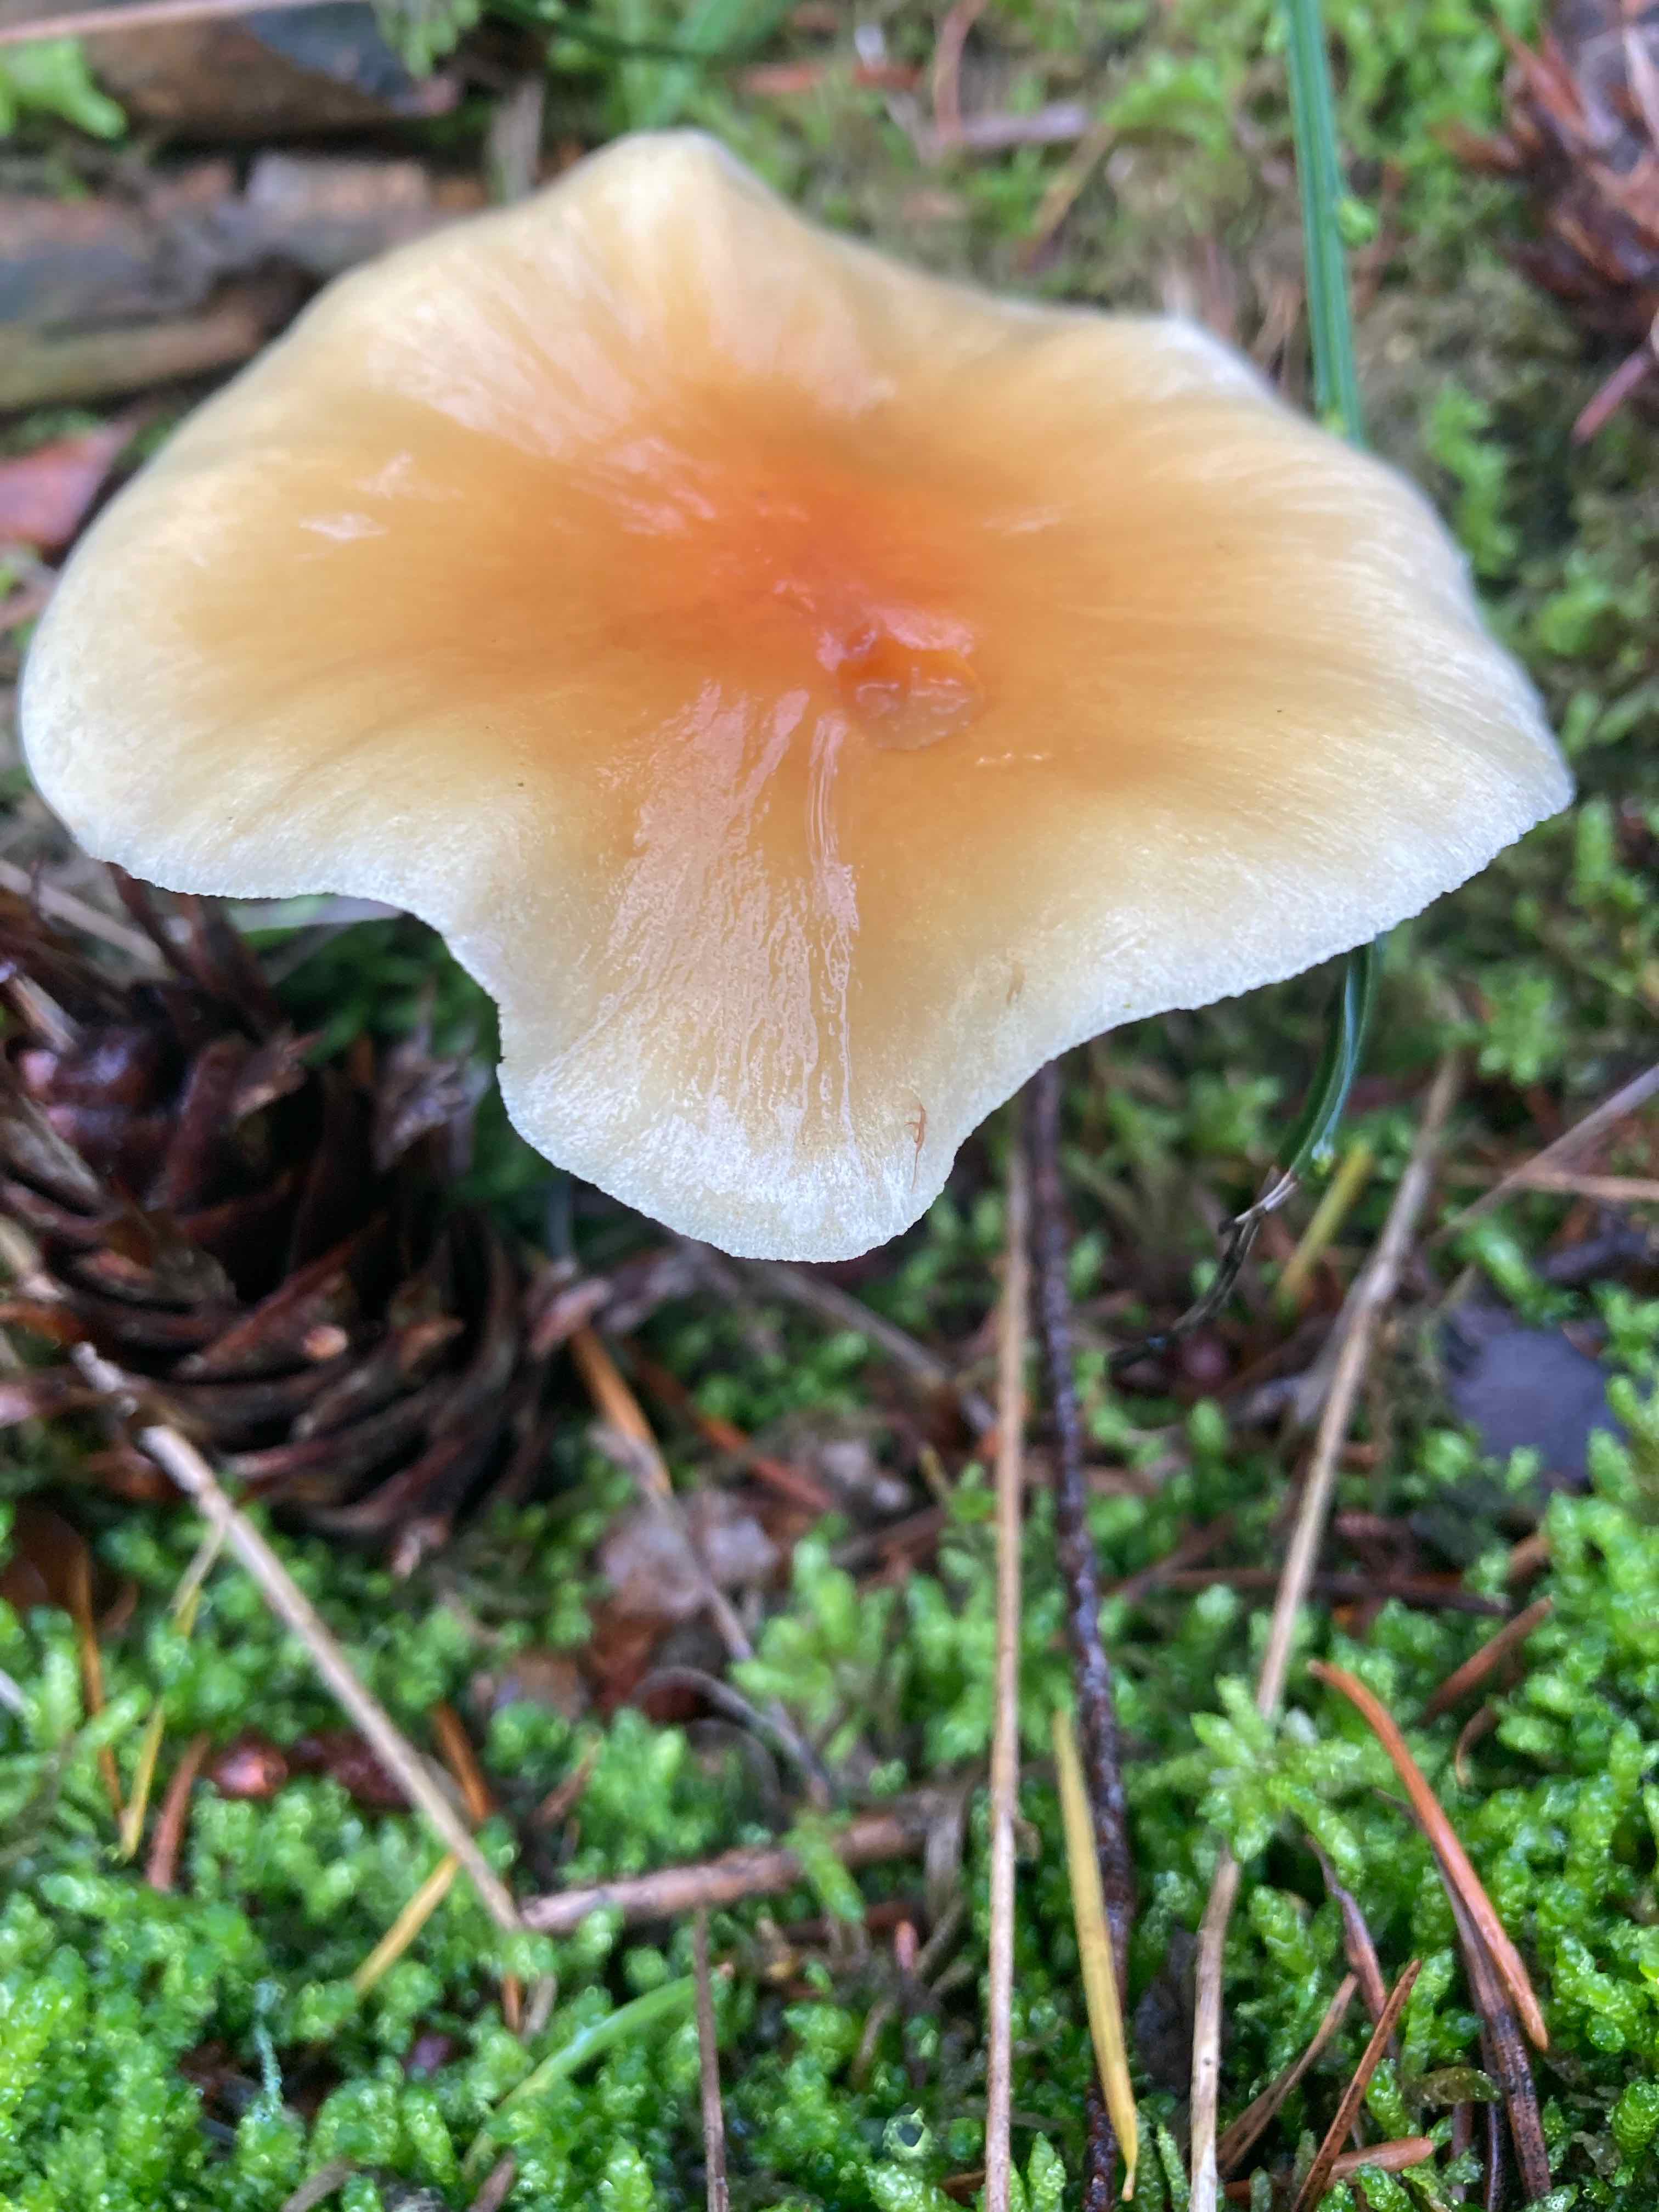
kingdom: Fungi
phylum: Basidiomycota
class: Agaricomycetes
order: Agaricales
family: Strophariaceae
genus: Hypholoma
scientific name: Hypholoma fasciculare
